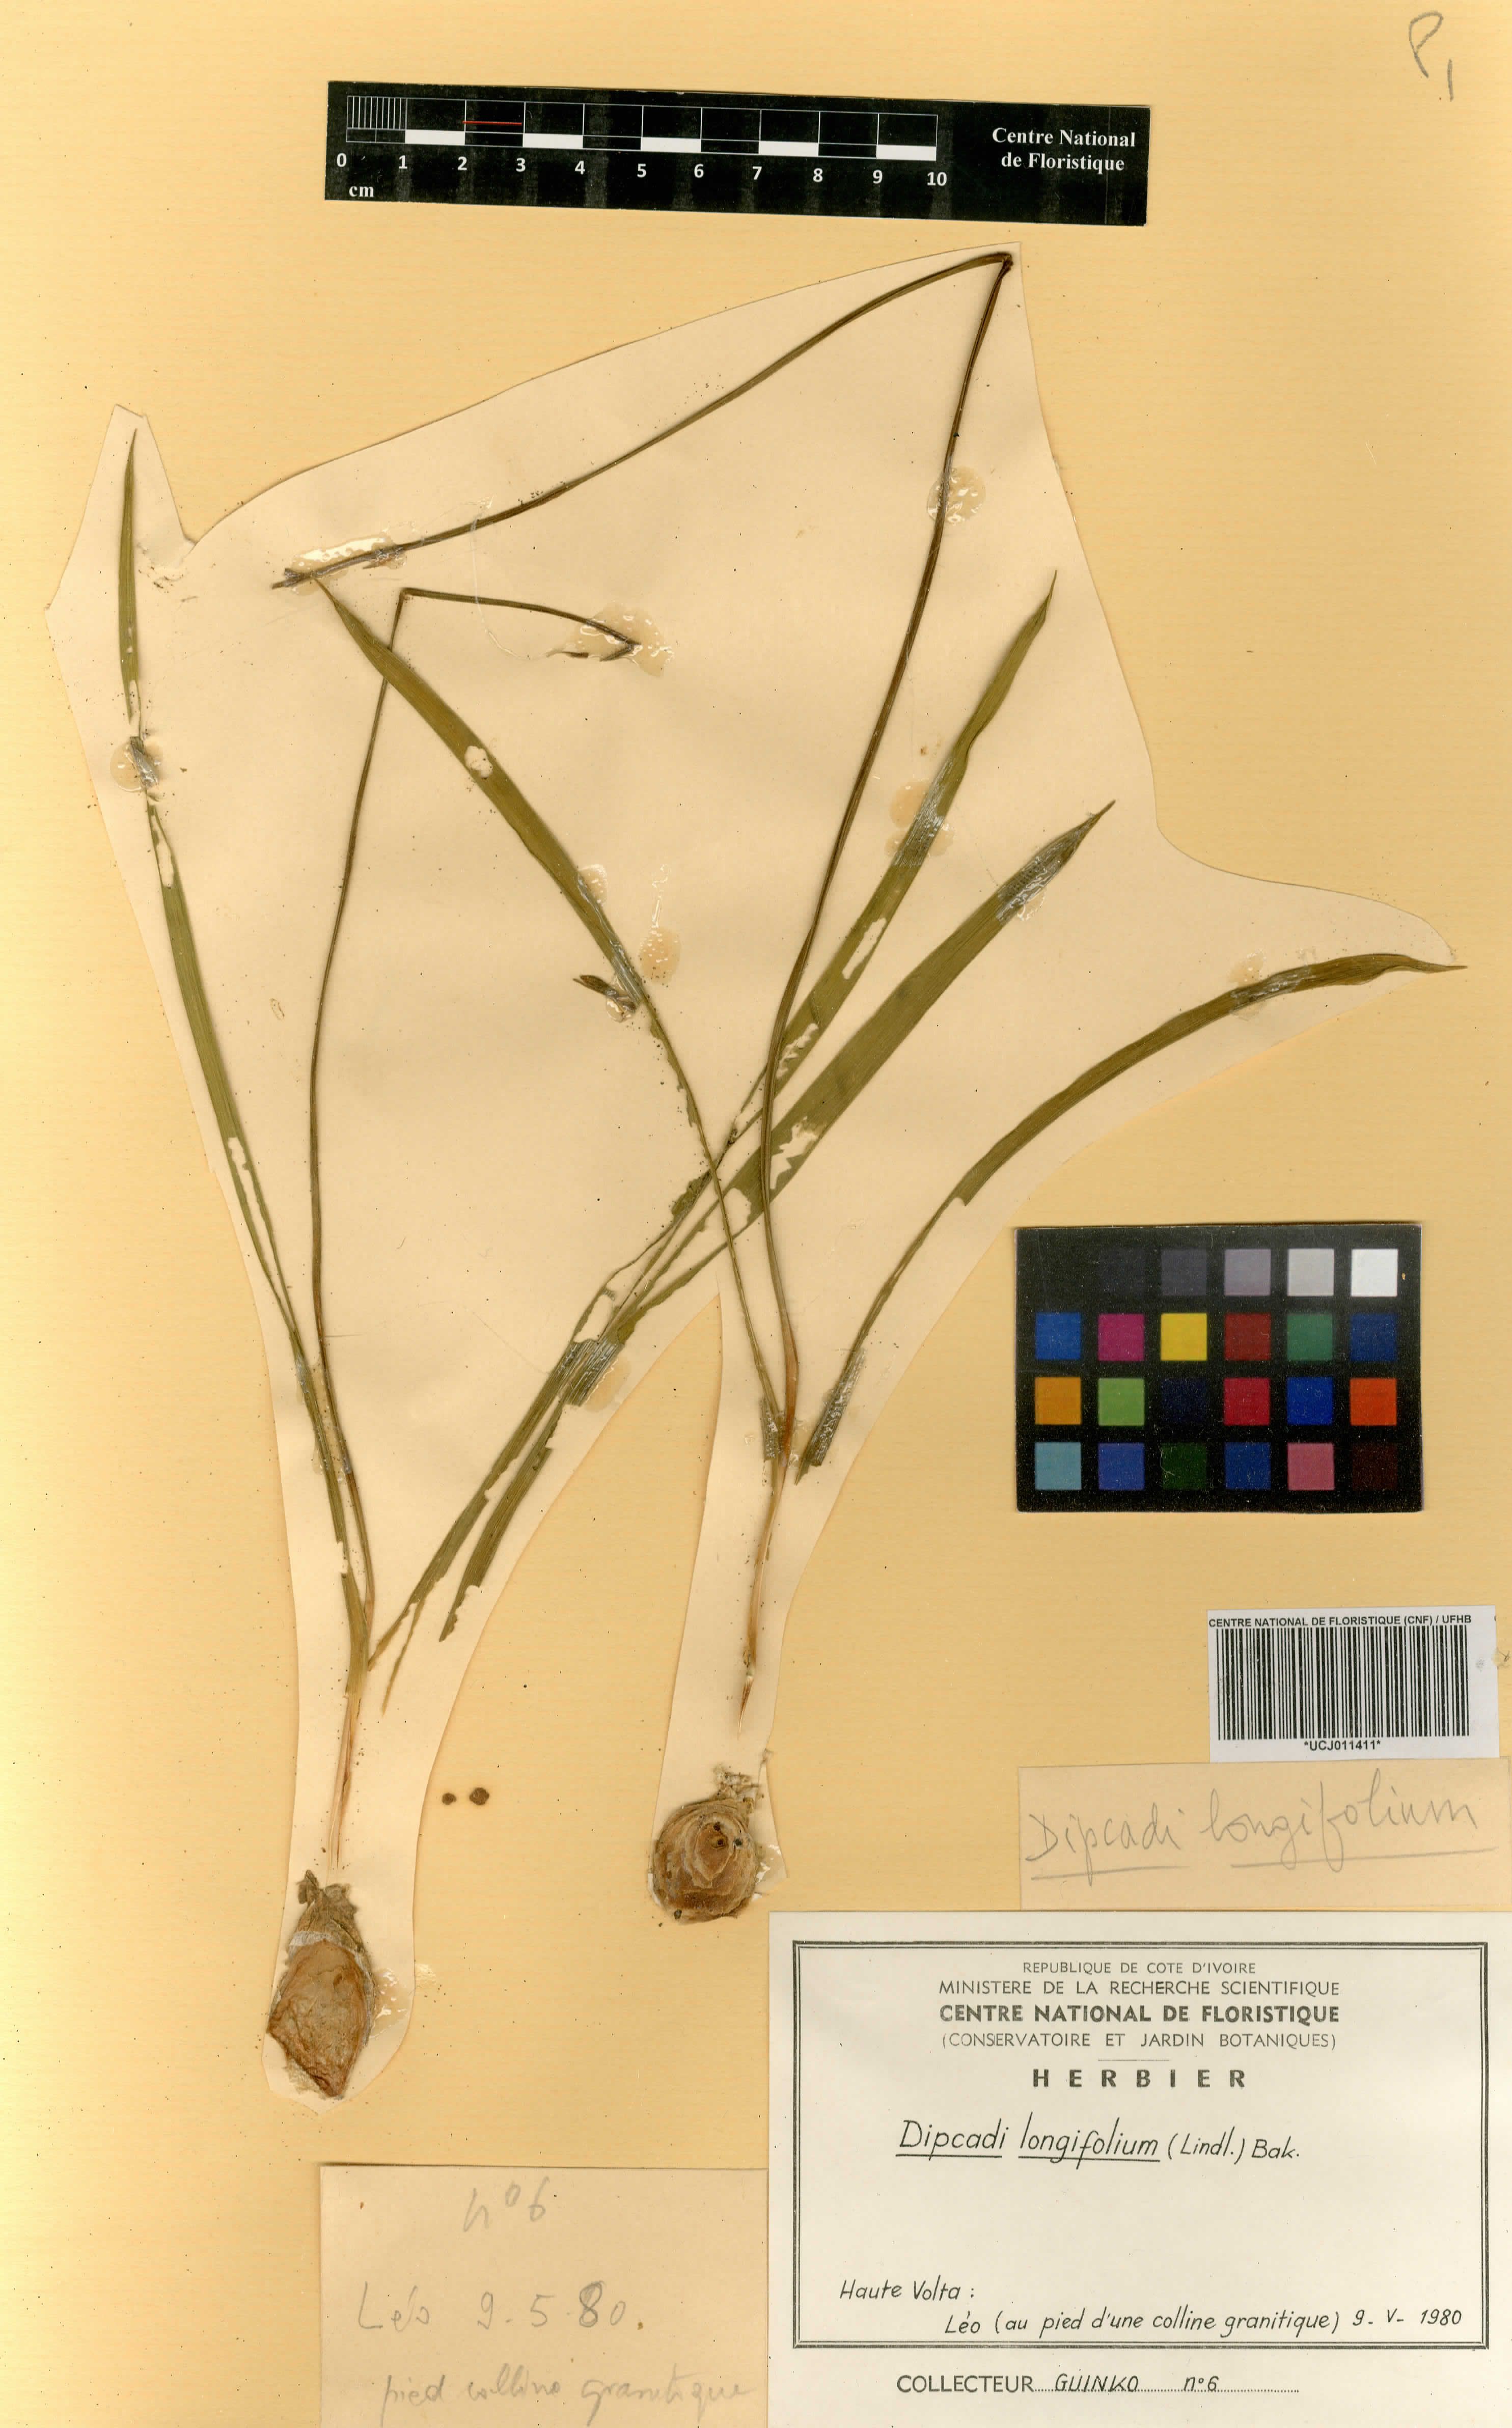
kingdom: Plantae
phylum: Tracheophyta
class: Liliopsida
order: Asparagales
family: Asparagaceae
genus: Dipcadi
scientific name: Dipcadi longifolium
